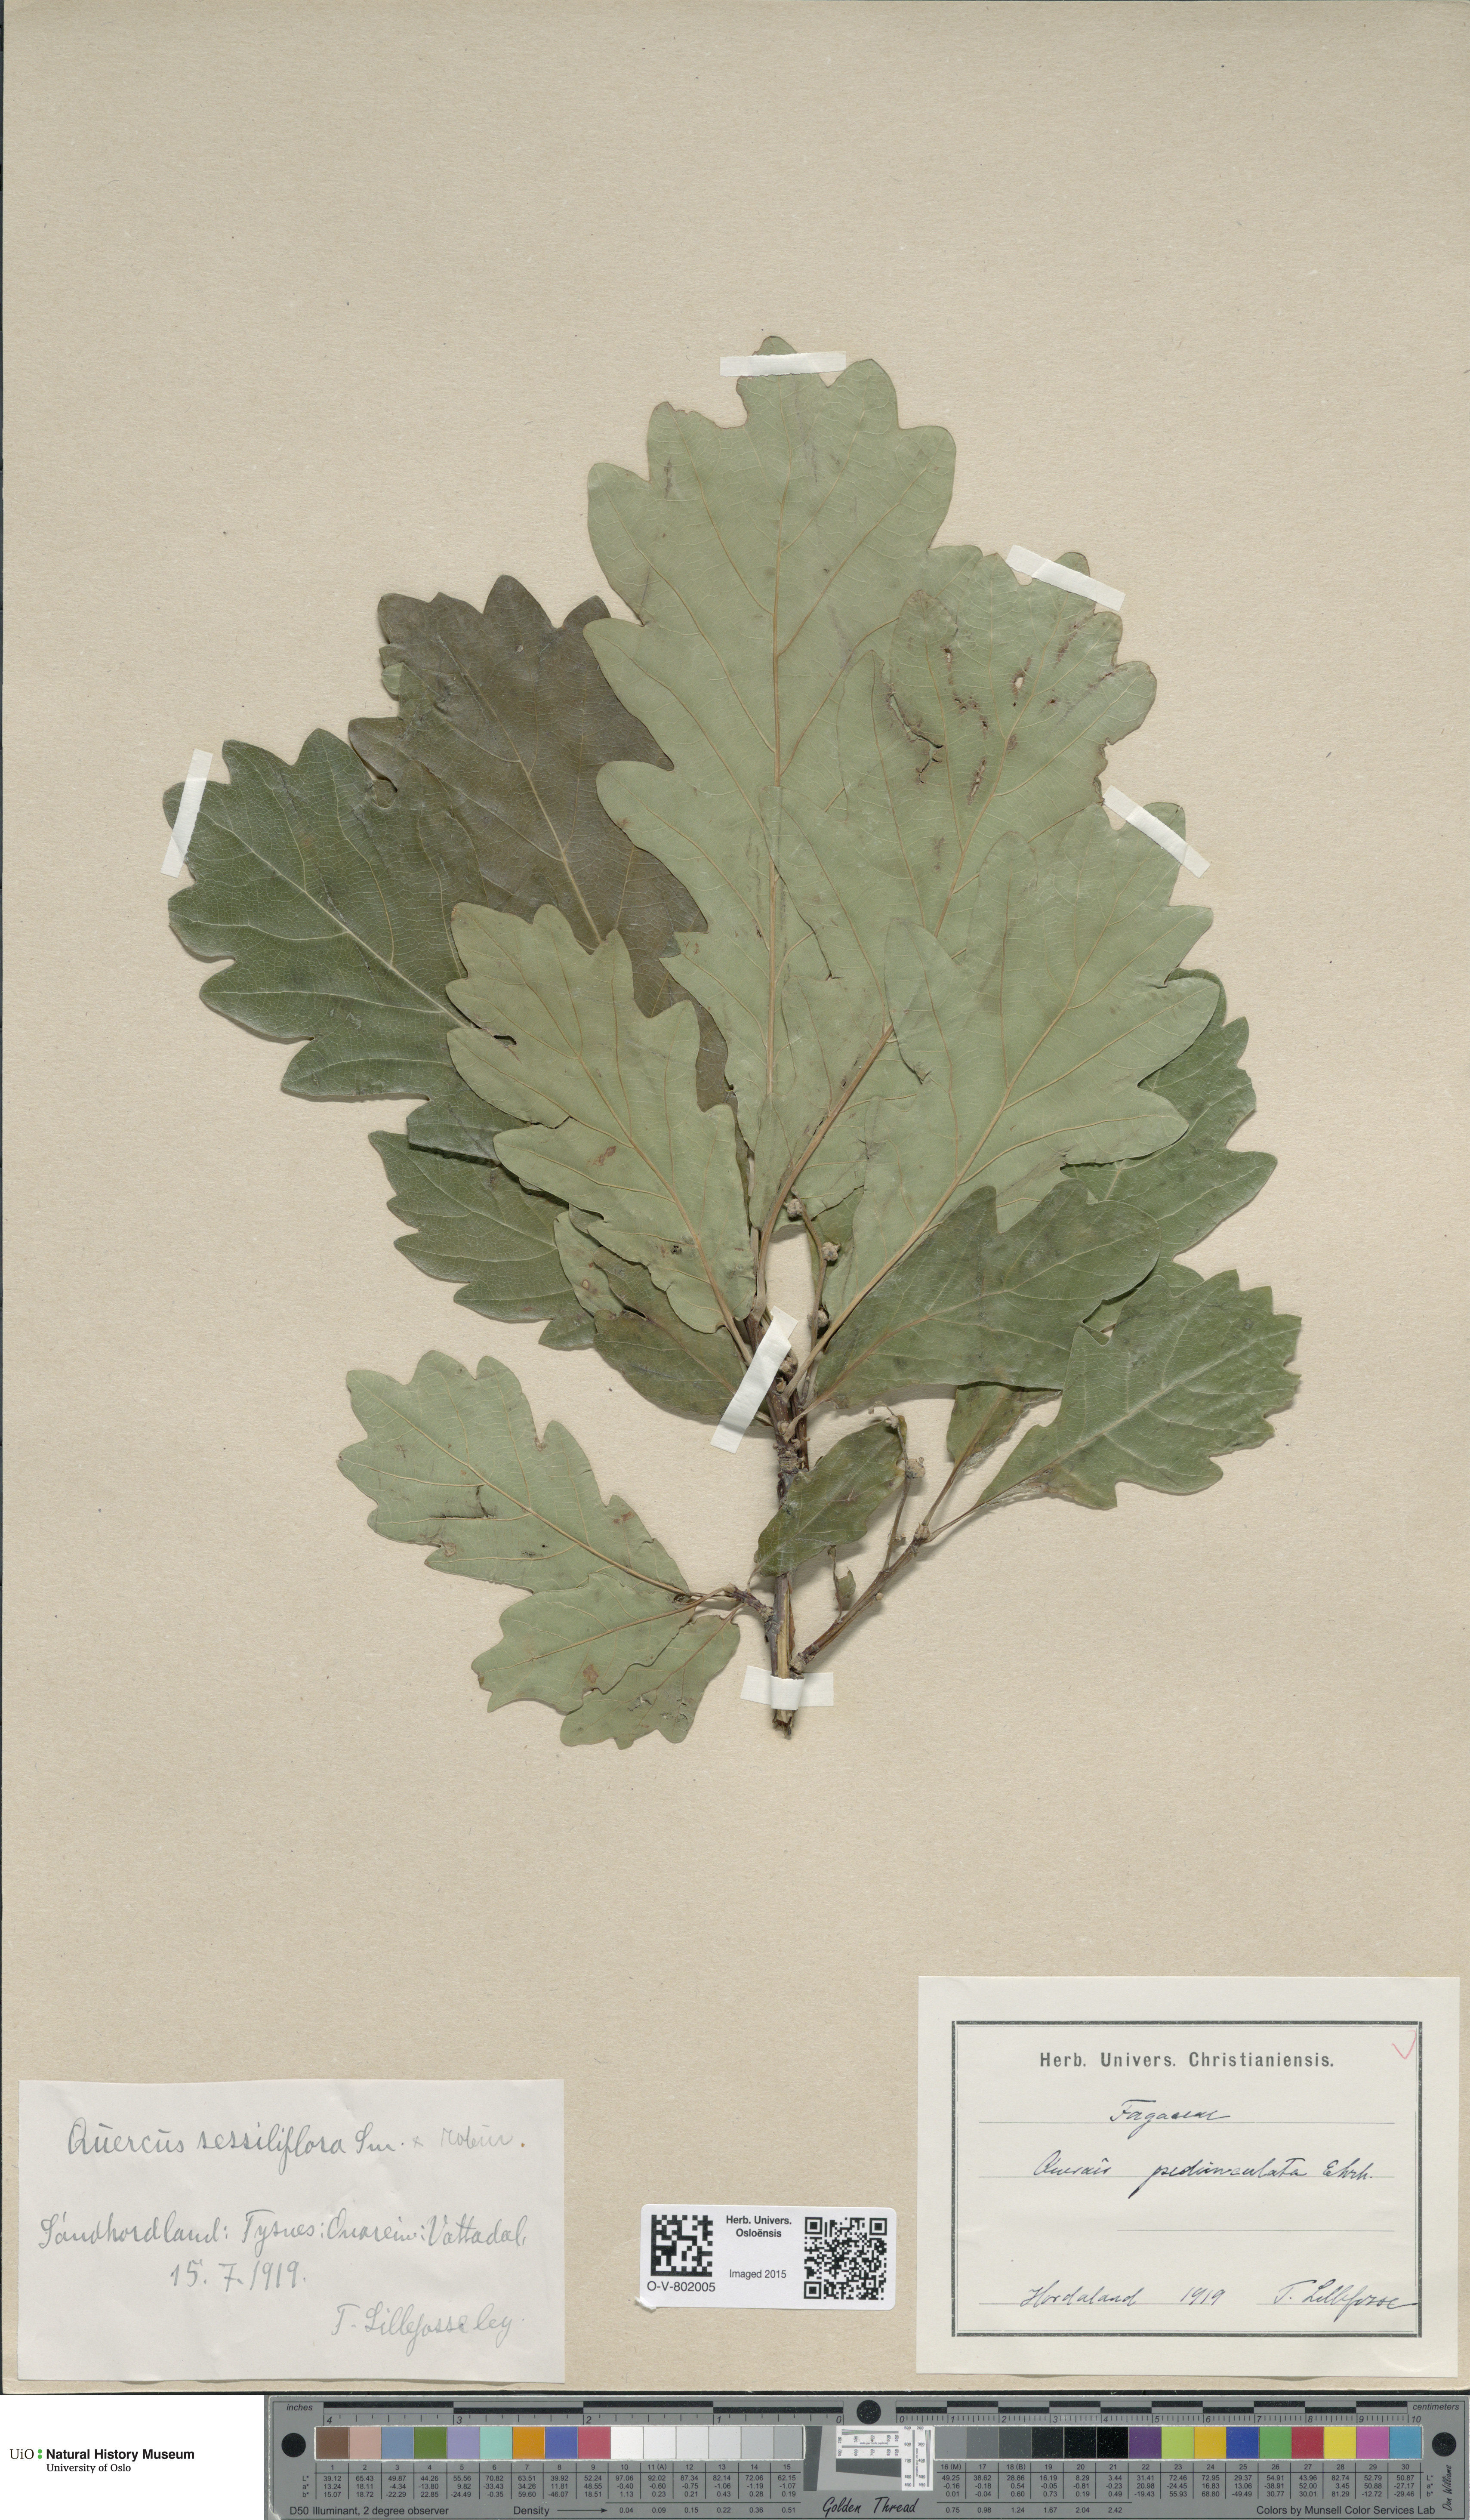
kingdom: Plantae
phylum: Tracheophyta
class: Magnoliopsida
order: Fagales
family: Fagaceae
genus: Quercus
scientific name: Quercus petraea
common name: Sessile oak
